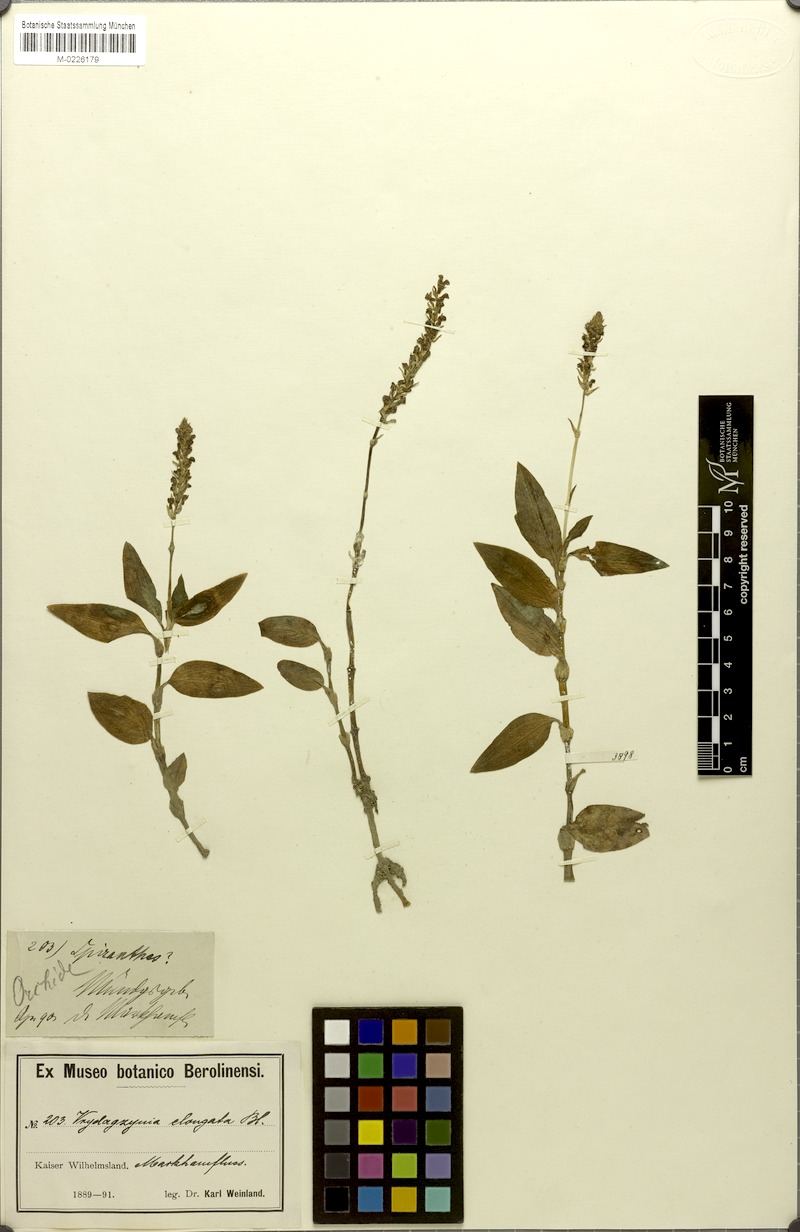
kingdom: Plantae
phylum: Tracheophyta
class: Liliopsida
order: Asparagales
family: Orchidaceae
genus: Vrydagzynea
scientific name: Vrydagzynea elongata
